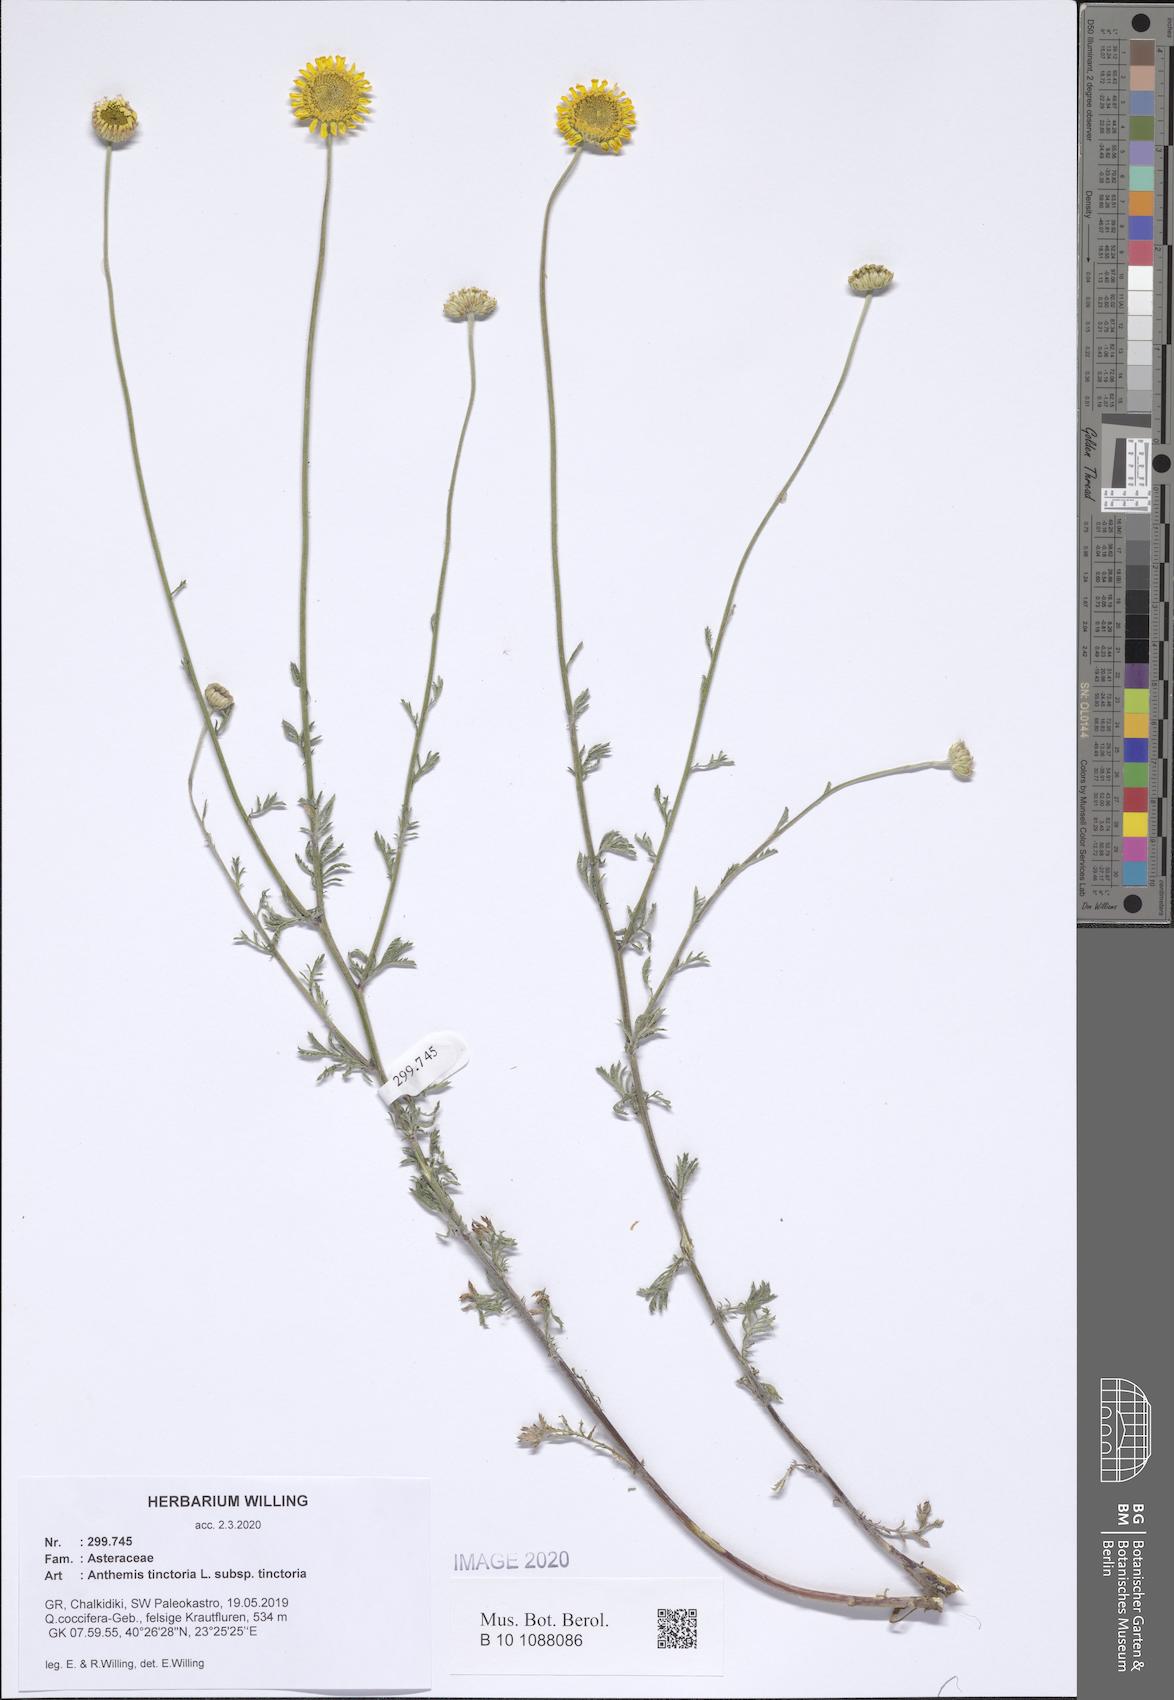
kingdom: Plantae
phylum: Tracheophyta
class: Magnoliopsida
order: Asterales
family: Asteraceae
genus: Cota
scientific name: Cota tinctoria
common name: Golden chamomile
